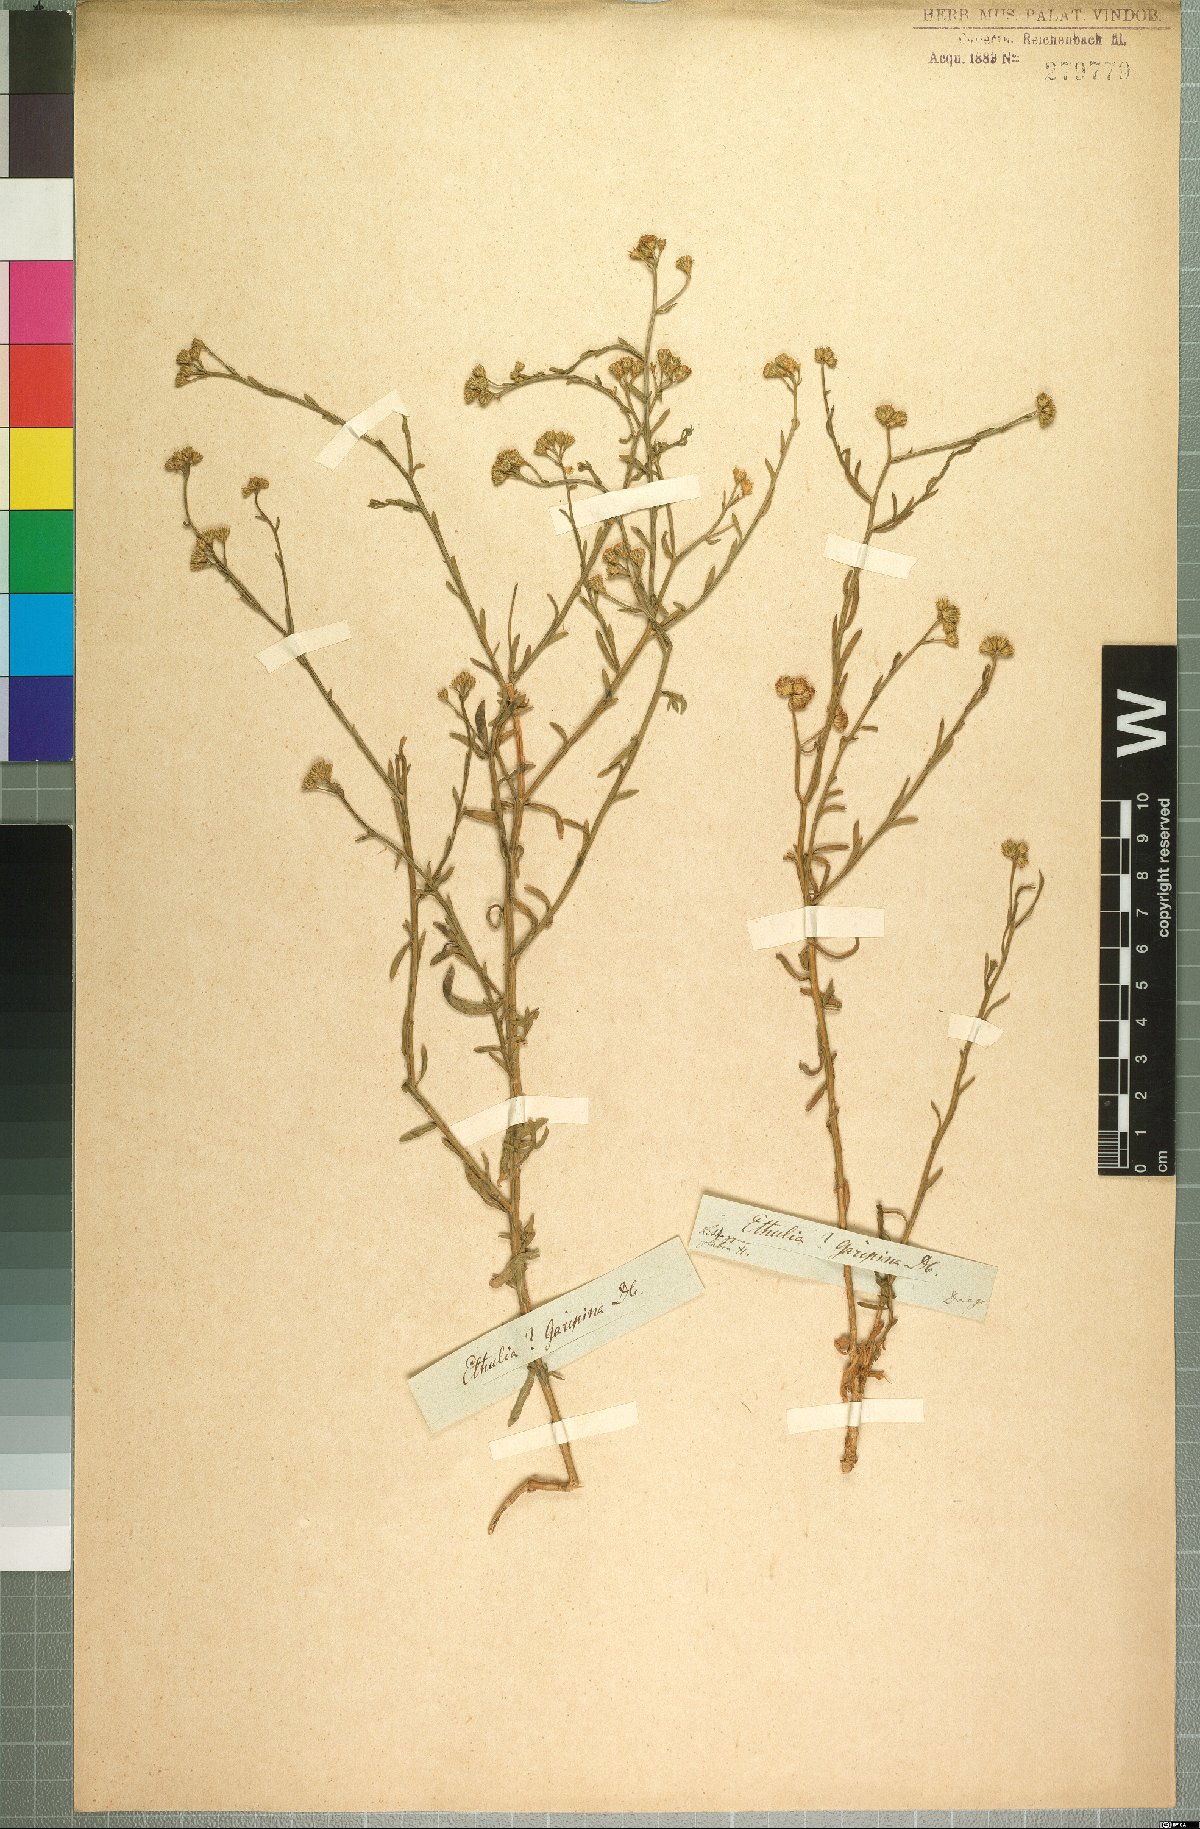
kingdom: Plantae
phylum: Tracheophyta
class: Magnoliopsida
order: Asterales
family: Asteraceae
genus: Litogyne
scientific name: Litogyne gariepina
